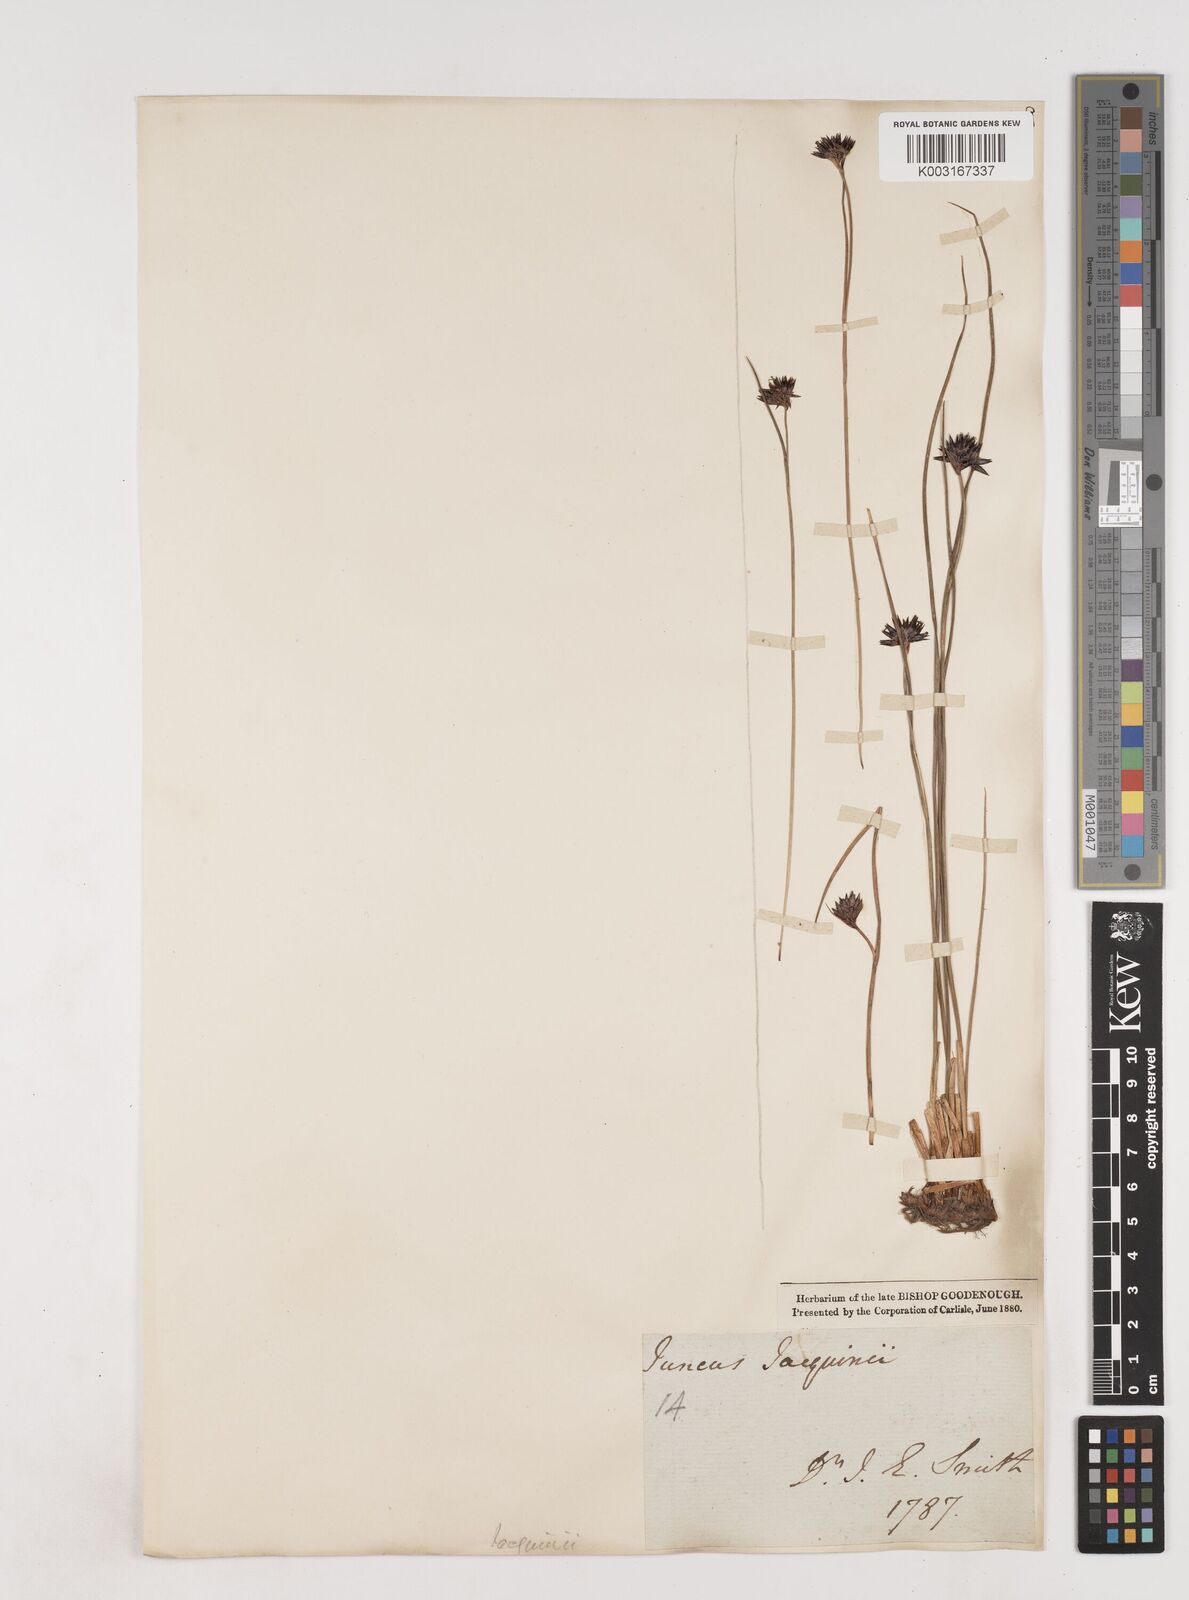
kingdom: Plantae
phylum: Tracheophyta
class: Liliopsida
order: Poales
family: Juncaceae
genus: Juncus
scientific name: Juncus jacquinii
